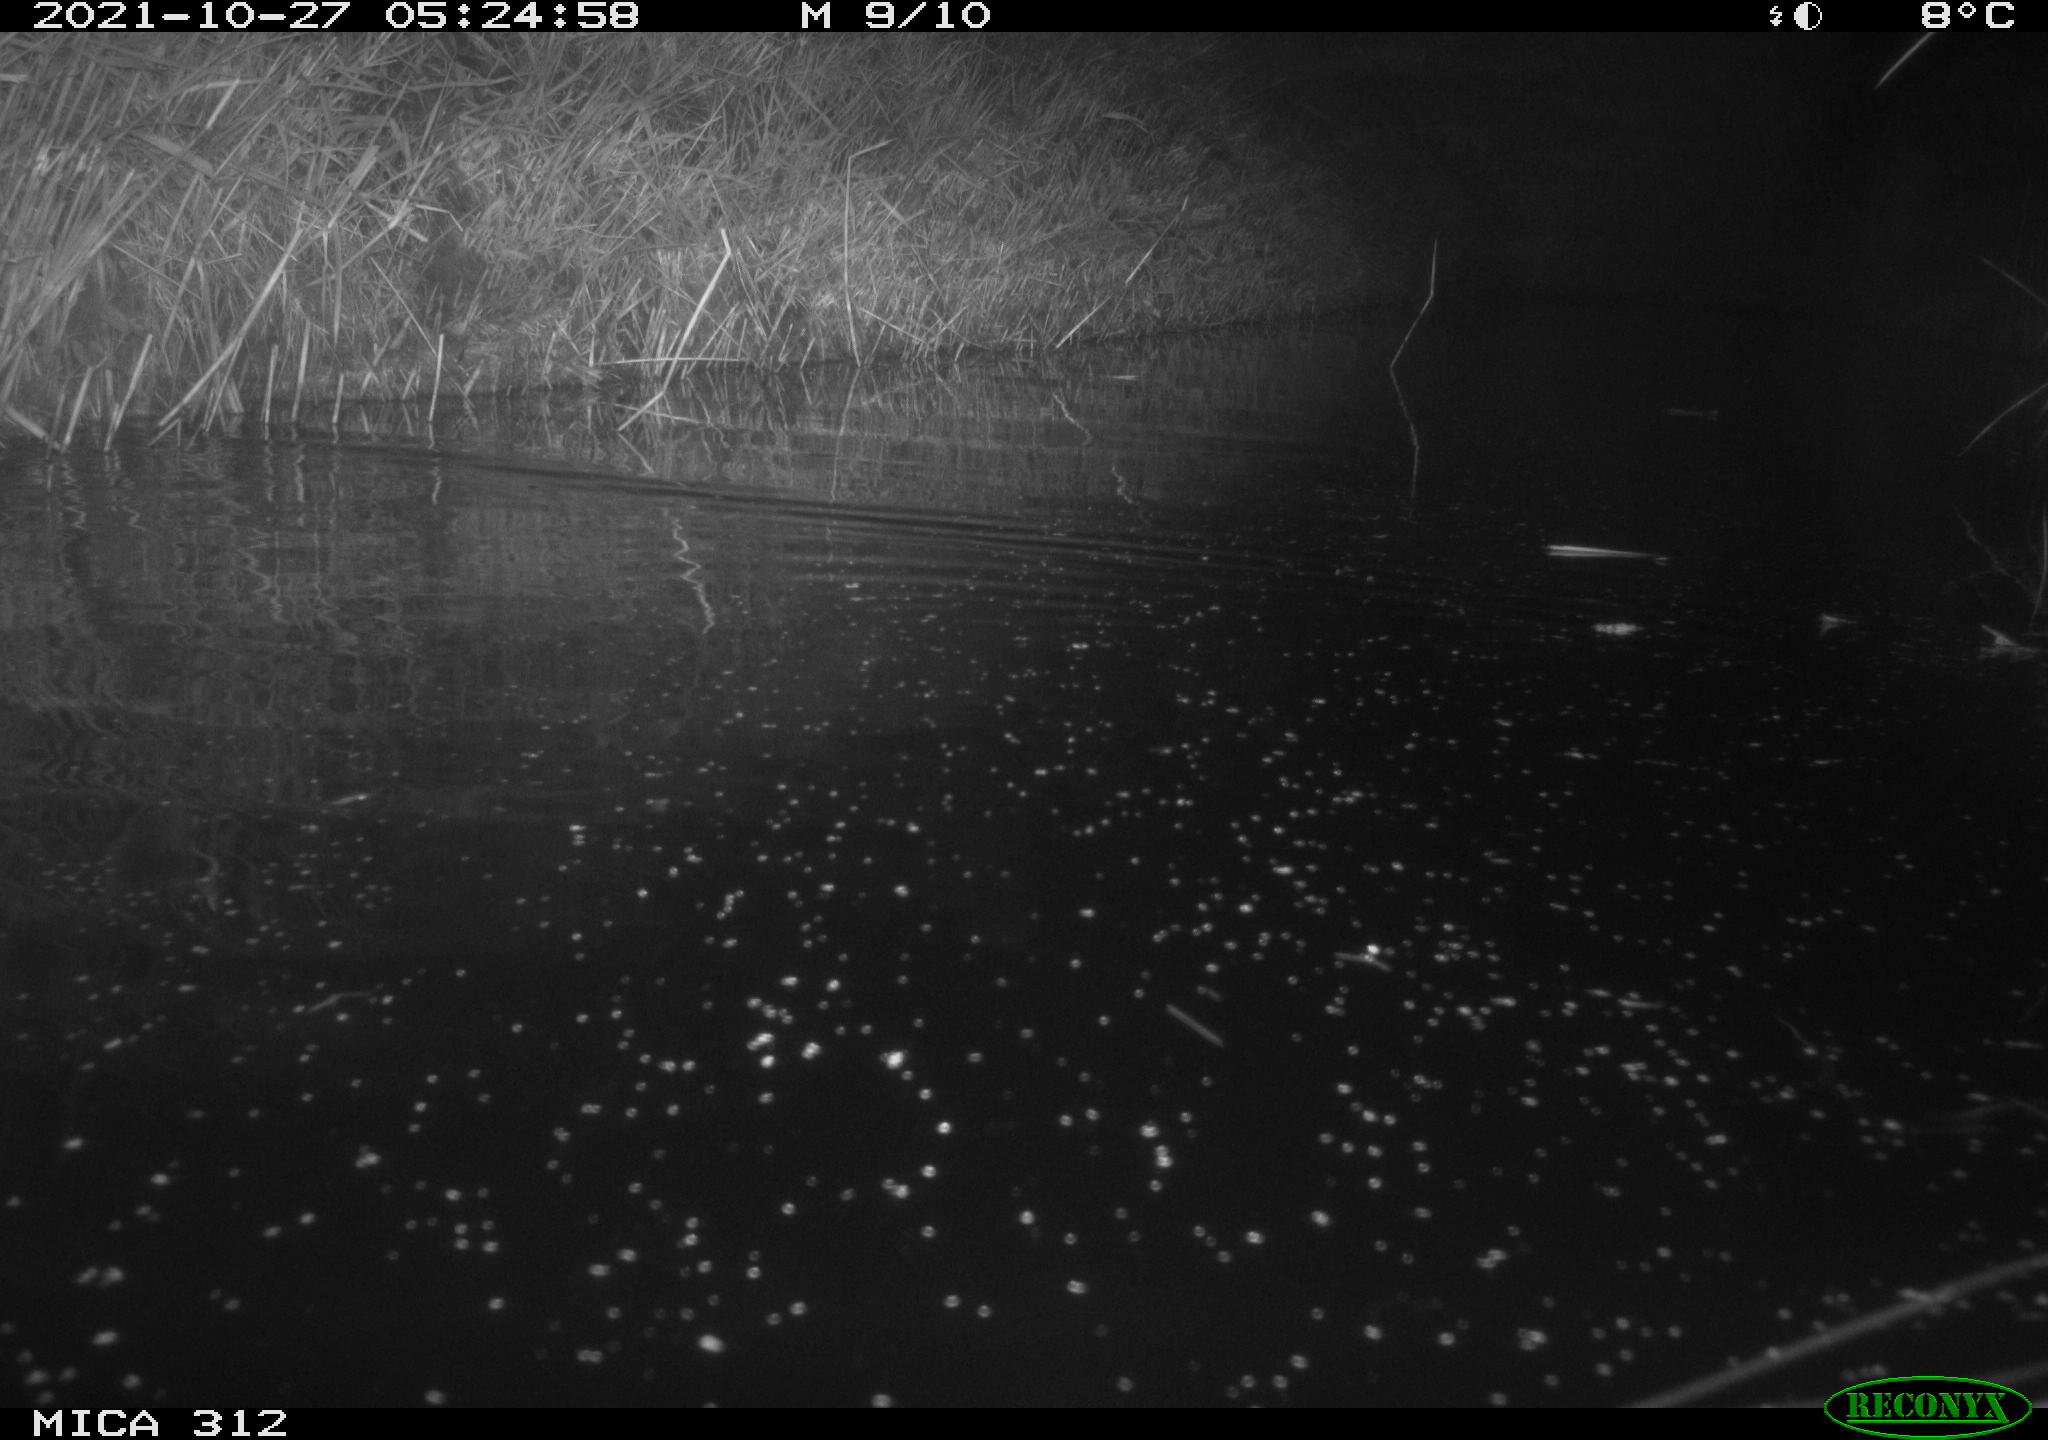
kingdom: Animalia
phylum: Chordata
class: Mammalia
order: Rodentia
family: Muridae
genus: Rattus
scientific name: Rattus norvegicus
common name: Brown rat
